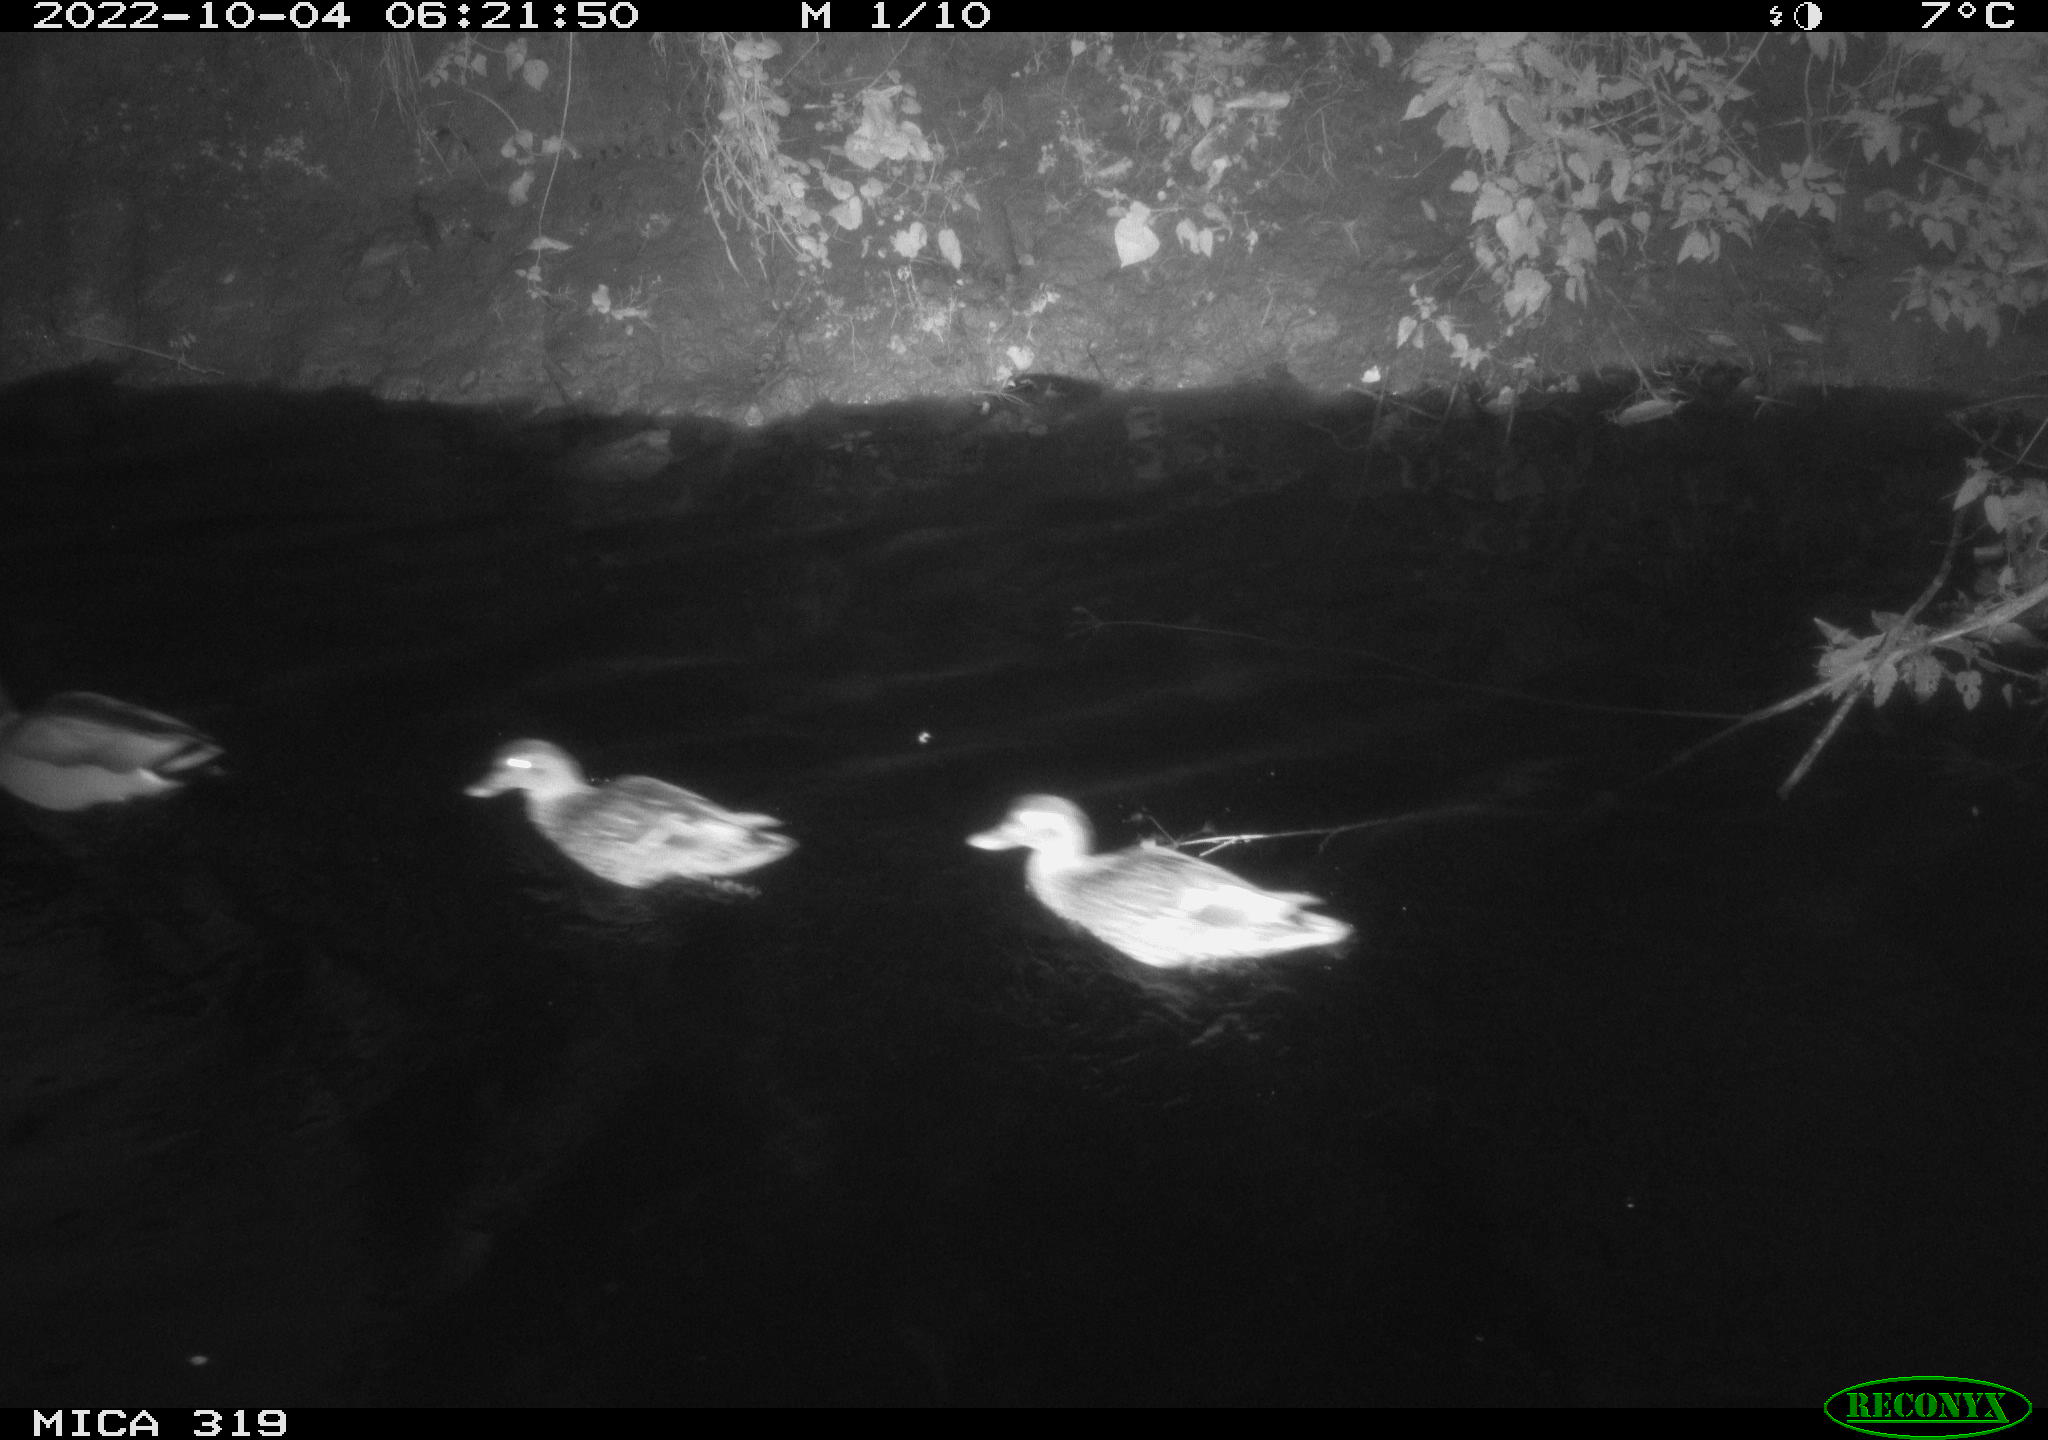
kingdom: Animalia
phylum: Chordata
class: Aves
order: Anseriformes
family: Anatidae
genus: Anas
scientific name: Anas
